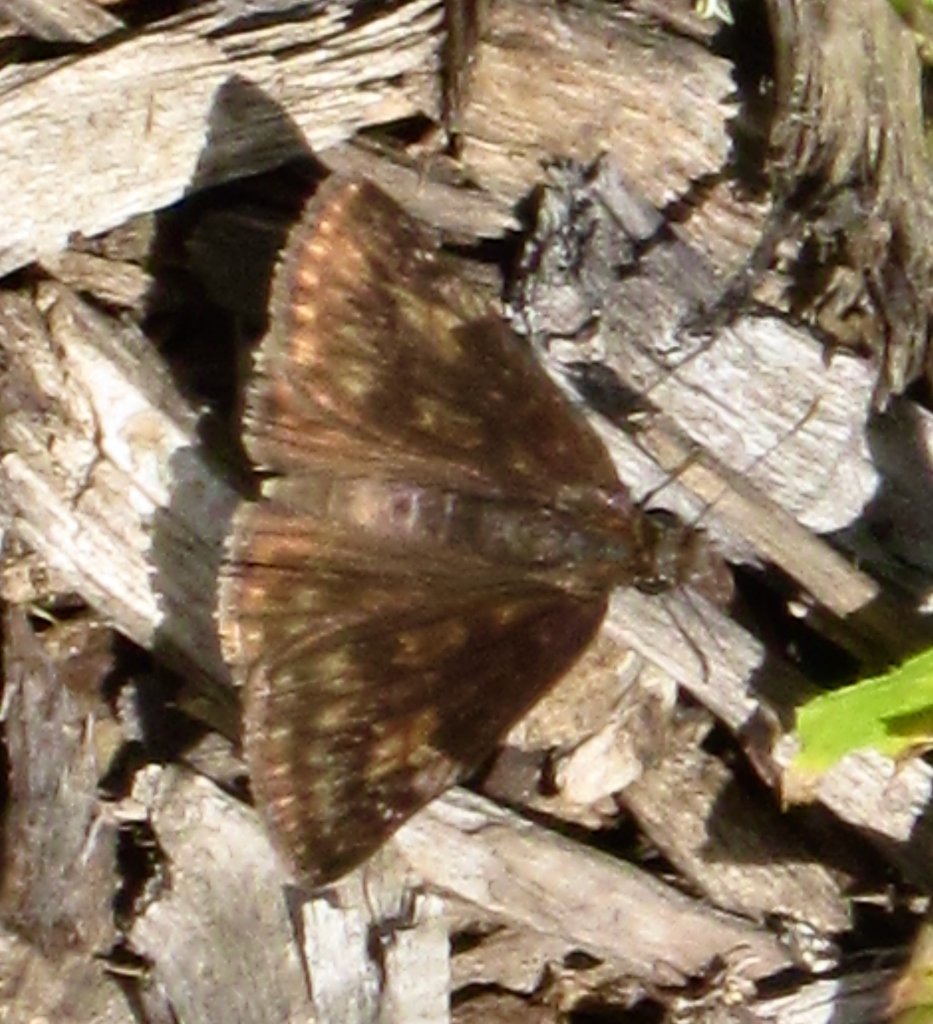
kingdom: Animalia
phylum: Arthropoda
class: Insecta
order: Lepidoptera
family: Hesperiidae
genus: Gesta
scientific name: Gesta
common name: Wild Indigo Duskywing
